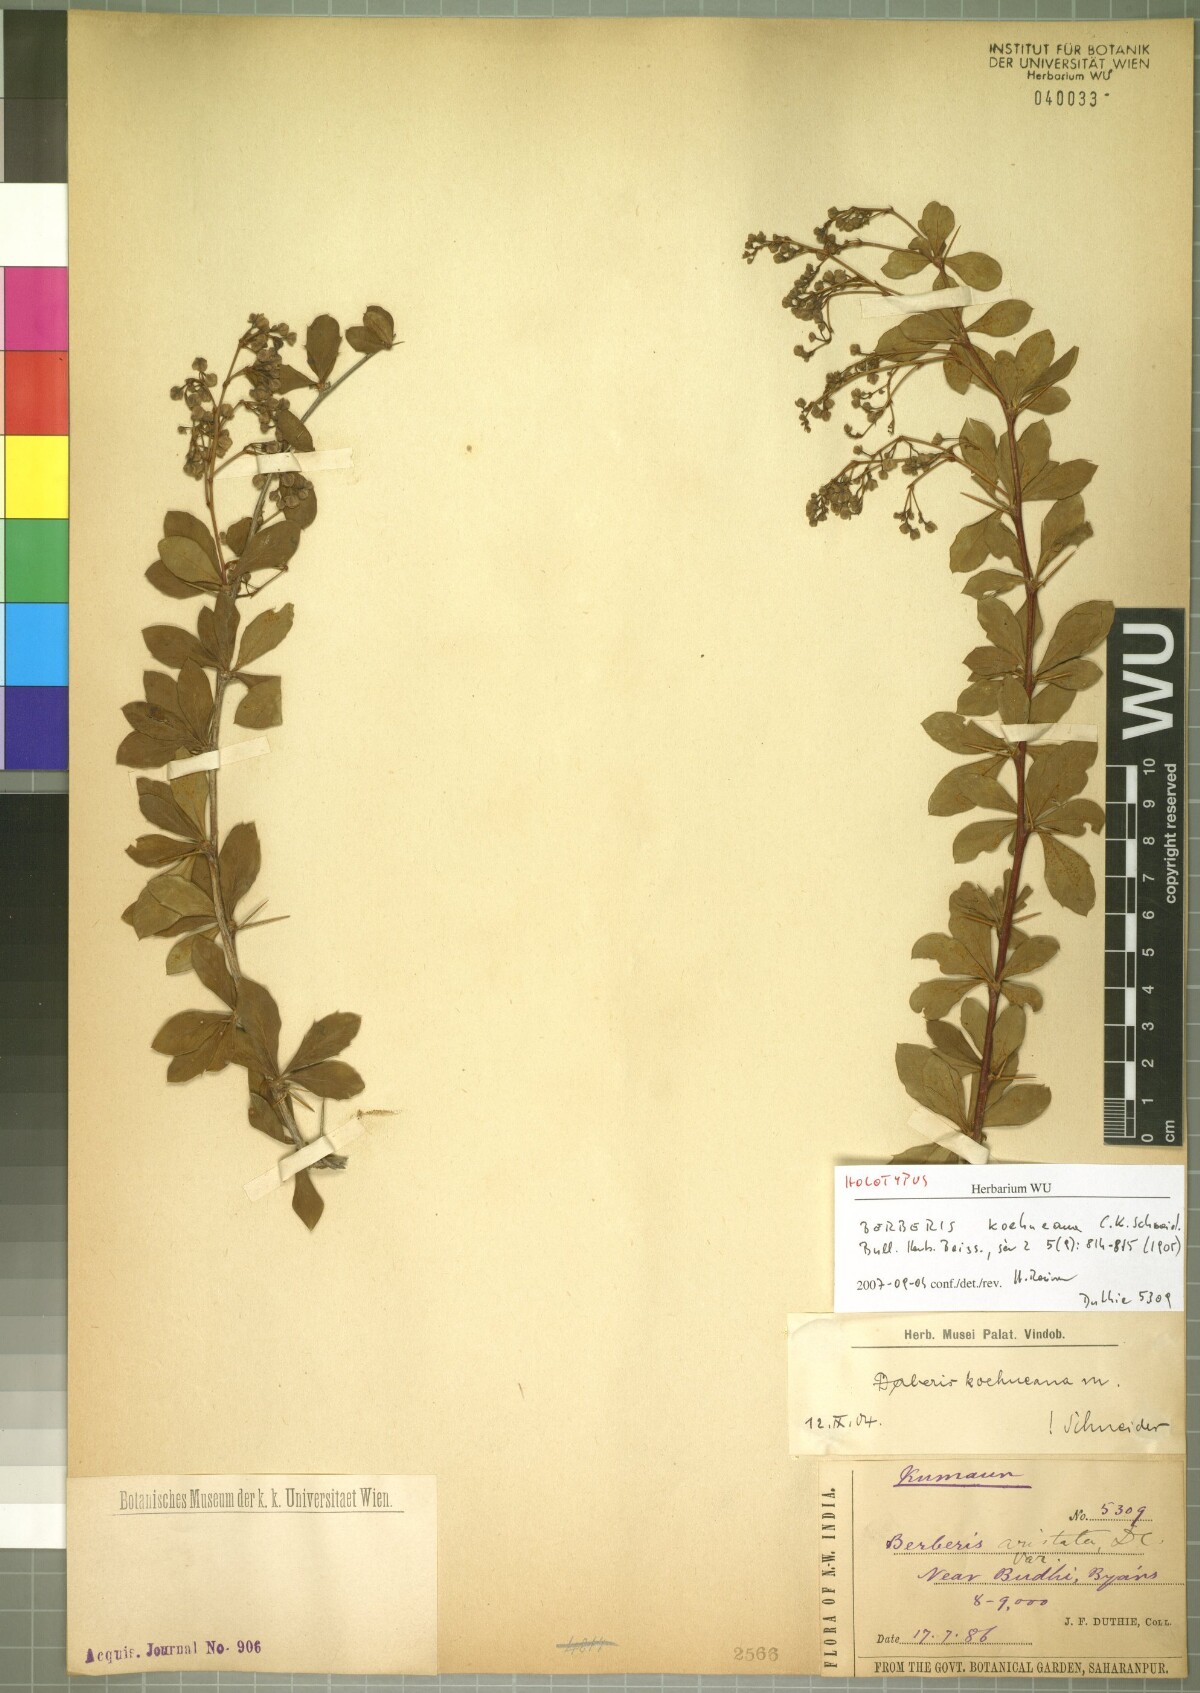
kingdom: Plantae
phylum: Tracheophyta
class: Magnoliopsida
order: Ranunculales
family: Berberidaceae
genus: Berberis
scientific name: Berberis koehneana
